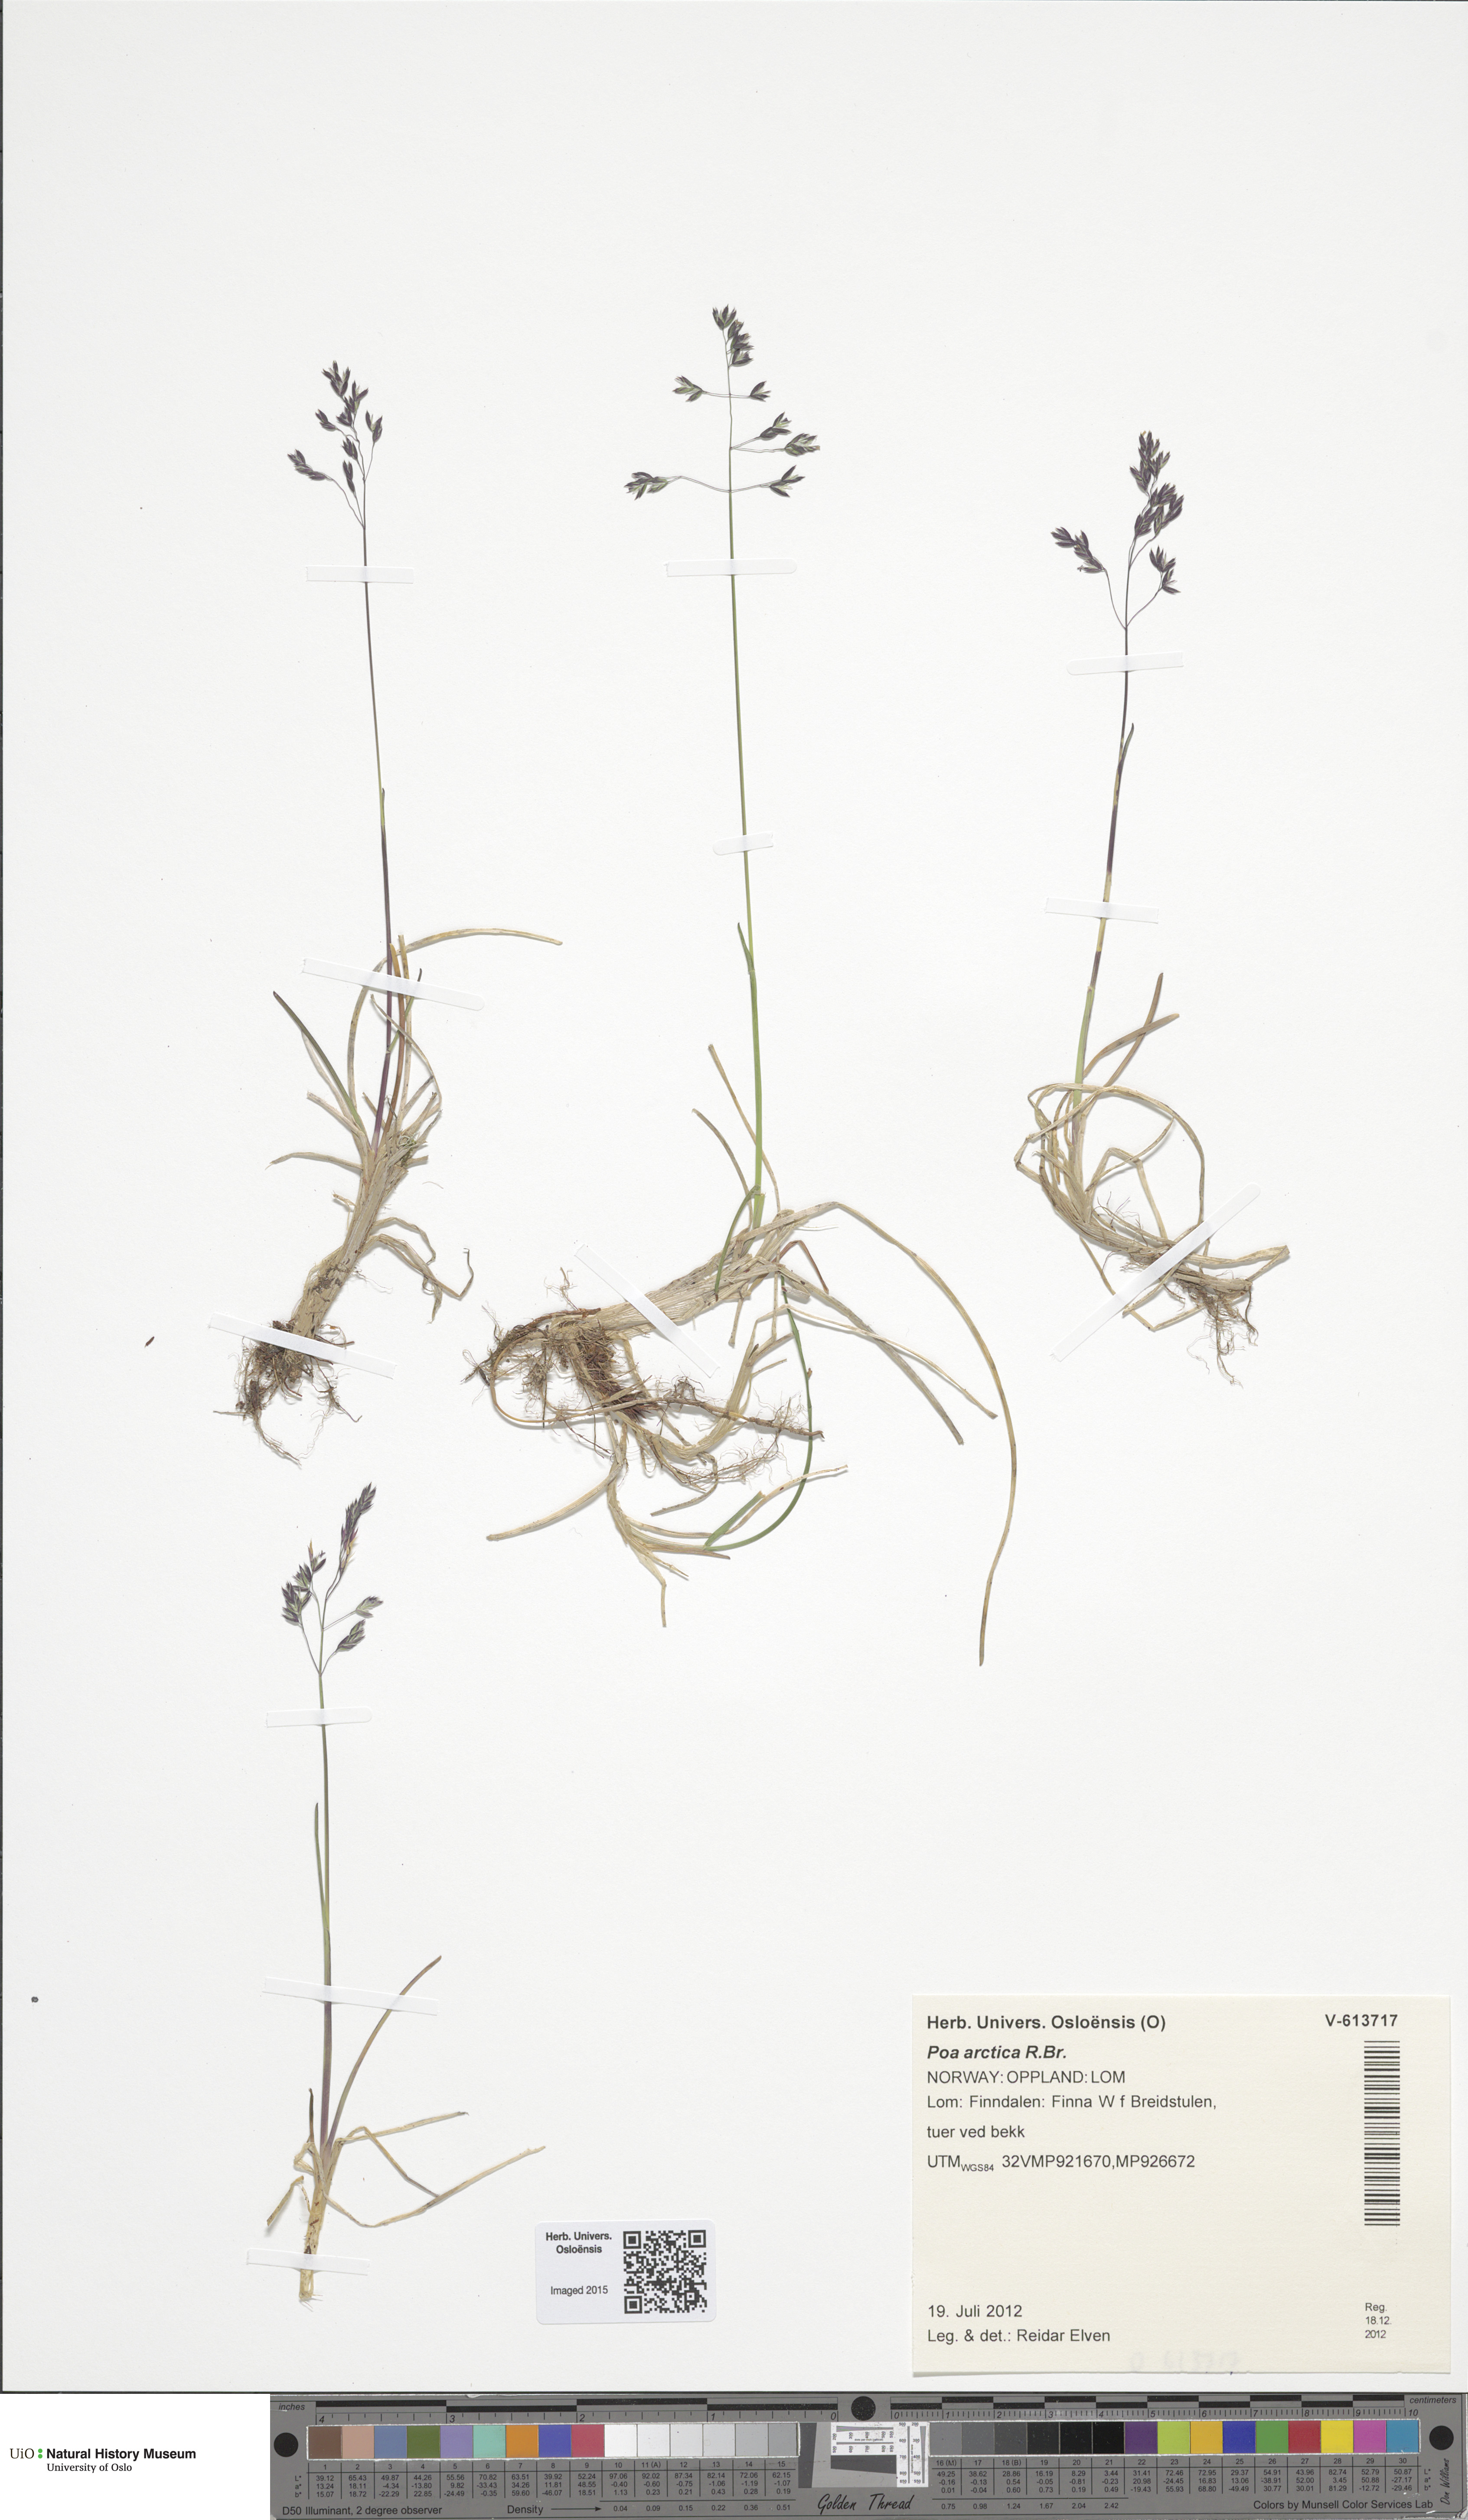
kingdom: Plantae
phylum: Tracheophyta
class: Liliopsida
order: Poales
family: Poaceae
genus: Poa
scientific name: Poa arctica
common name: Arctic bluegrass
